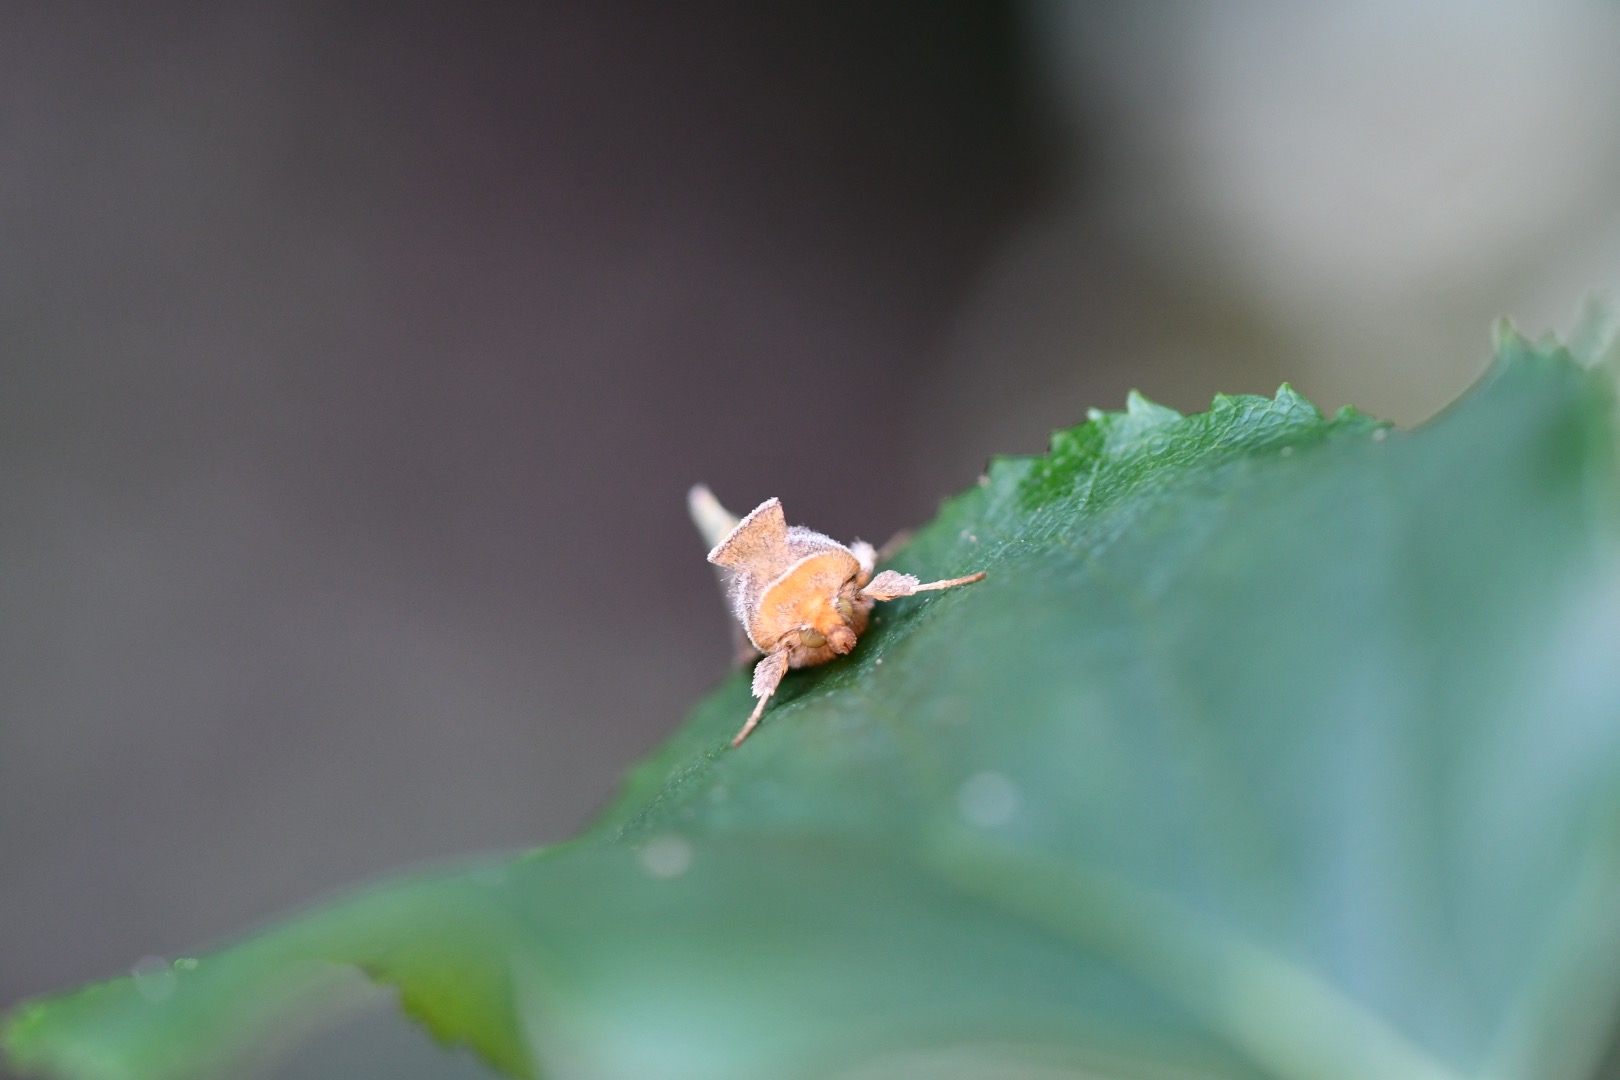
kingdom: Animalia
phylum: Arthropoda
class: Insecta
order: Lepidoptera
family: Noctuidae
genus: Diachrysia
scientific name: Diachrysia chrysitis
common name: Messingugle
